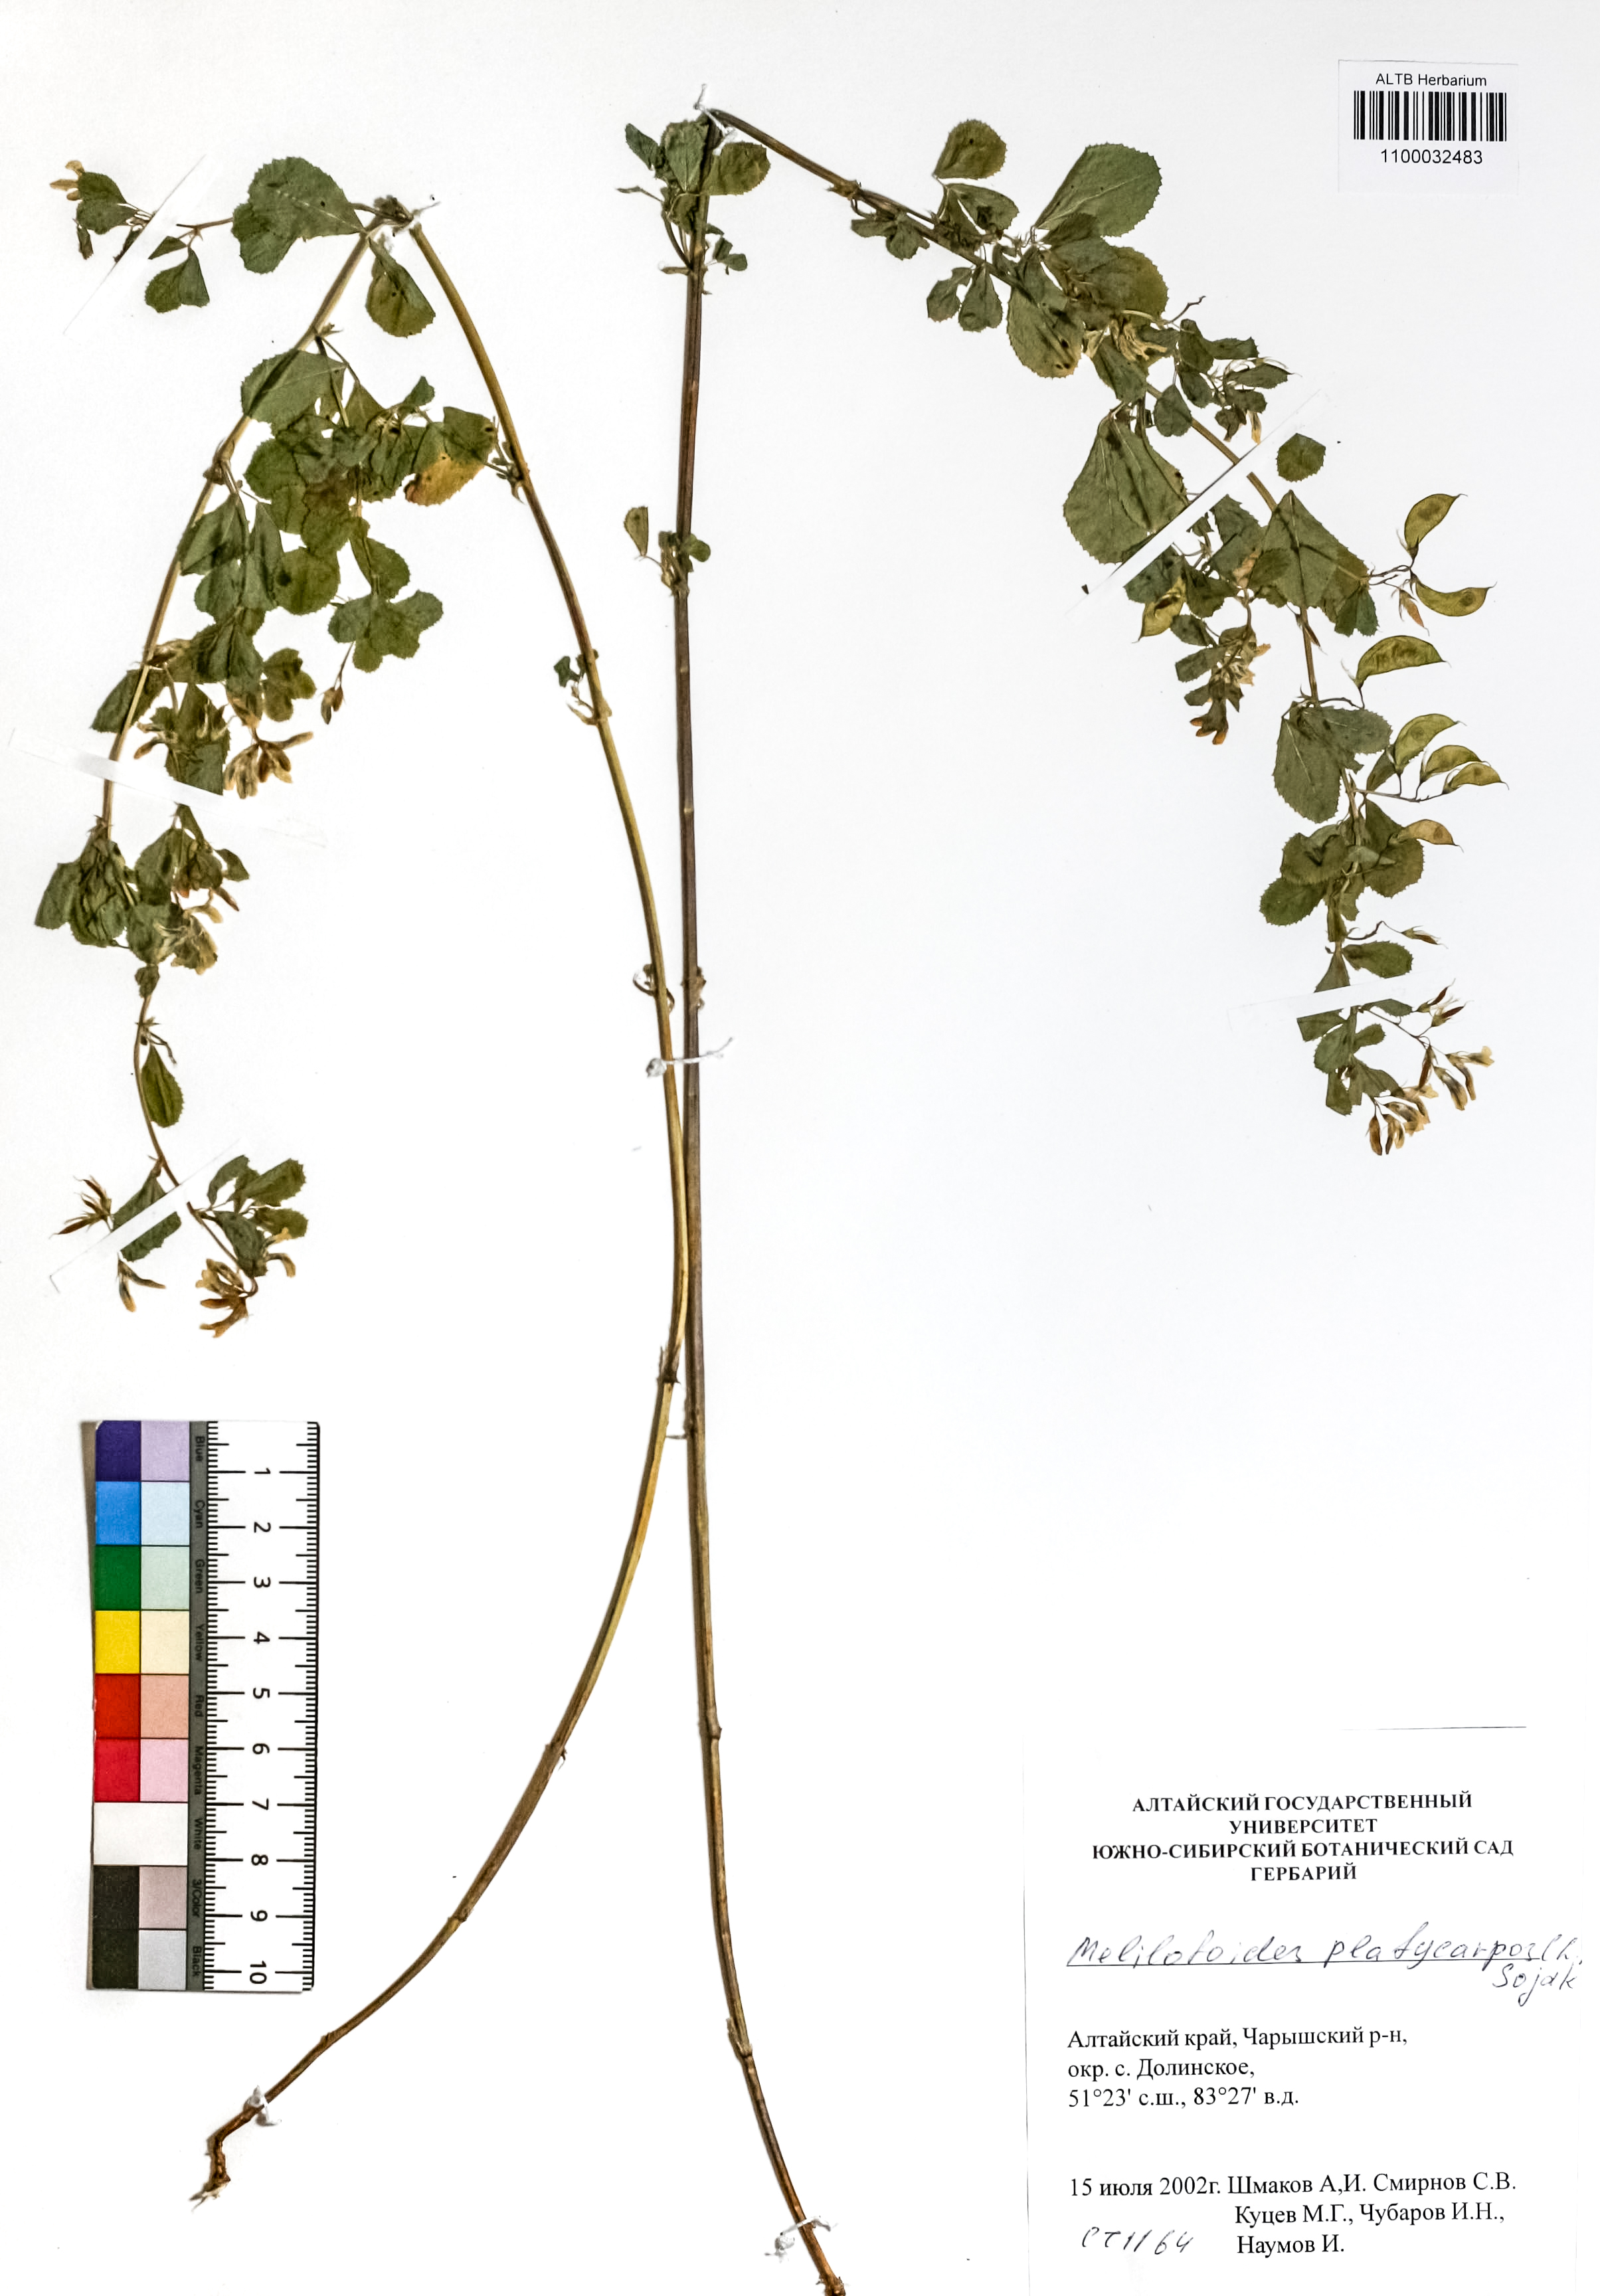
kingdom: Plantae
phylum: Tracheophyta
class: Magnoliopsida
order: Fabales
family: Fabaceae
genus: Medicago
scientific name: Medicago platycarpos
